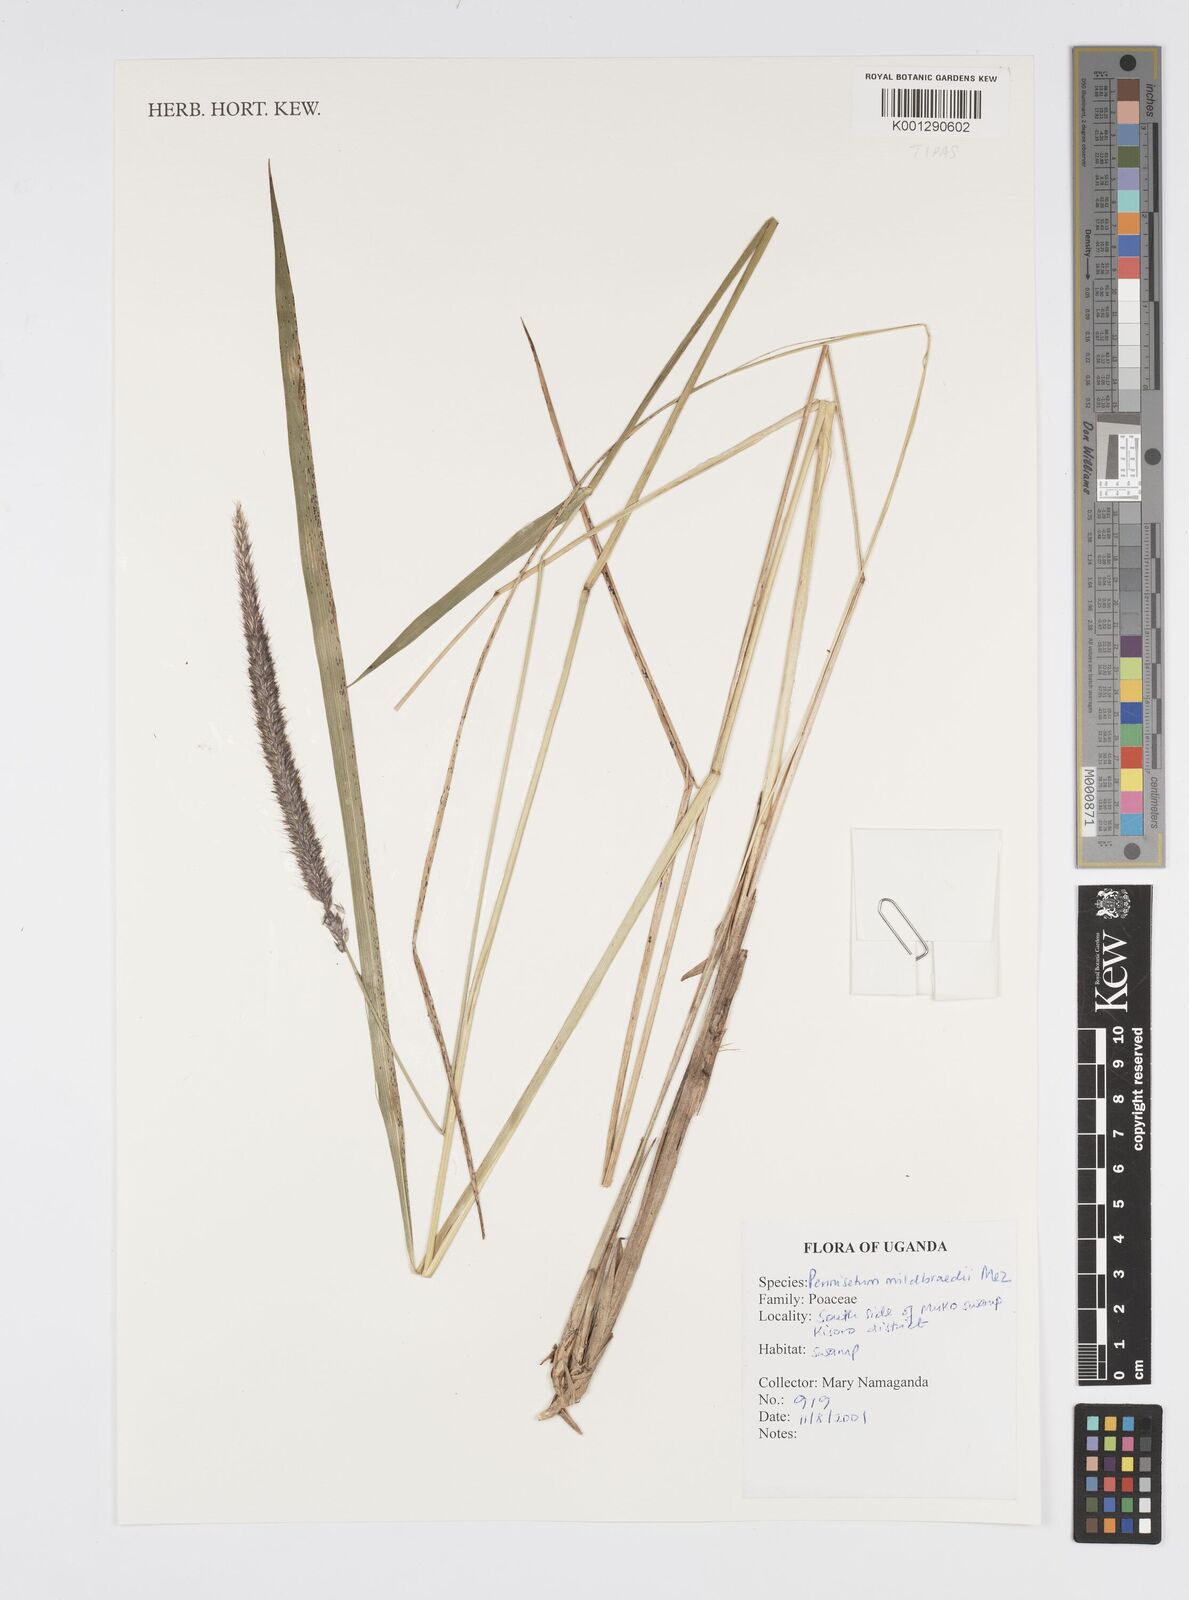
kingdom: Plantae
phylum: Tracheophyta
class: Liliopsida
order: Poales
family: Poaceae
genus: Cenchrus
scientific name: Cenchrus Pennisetum spec
